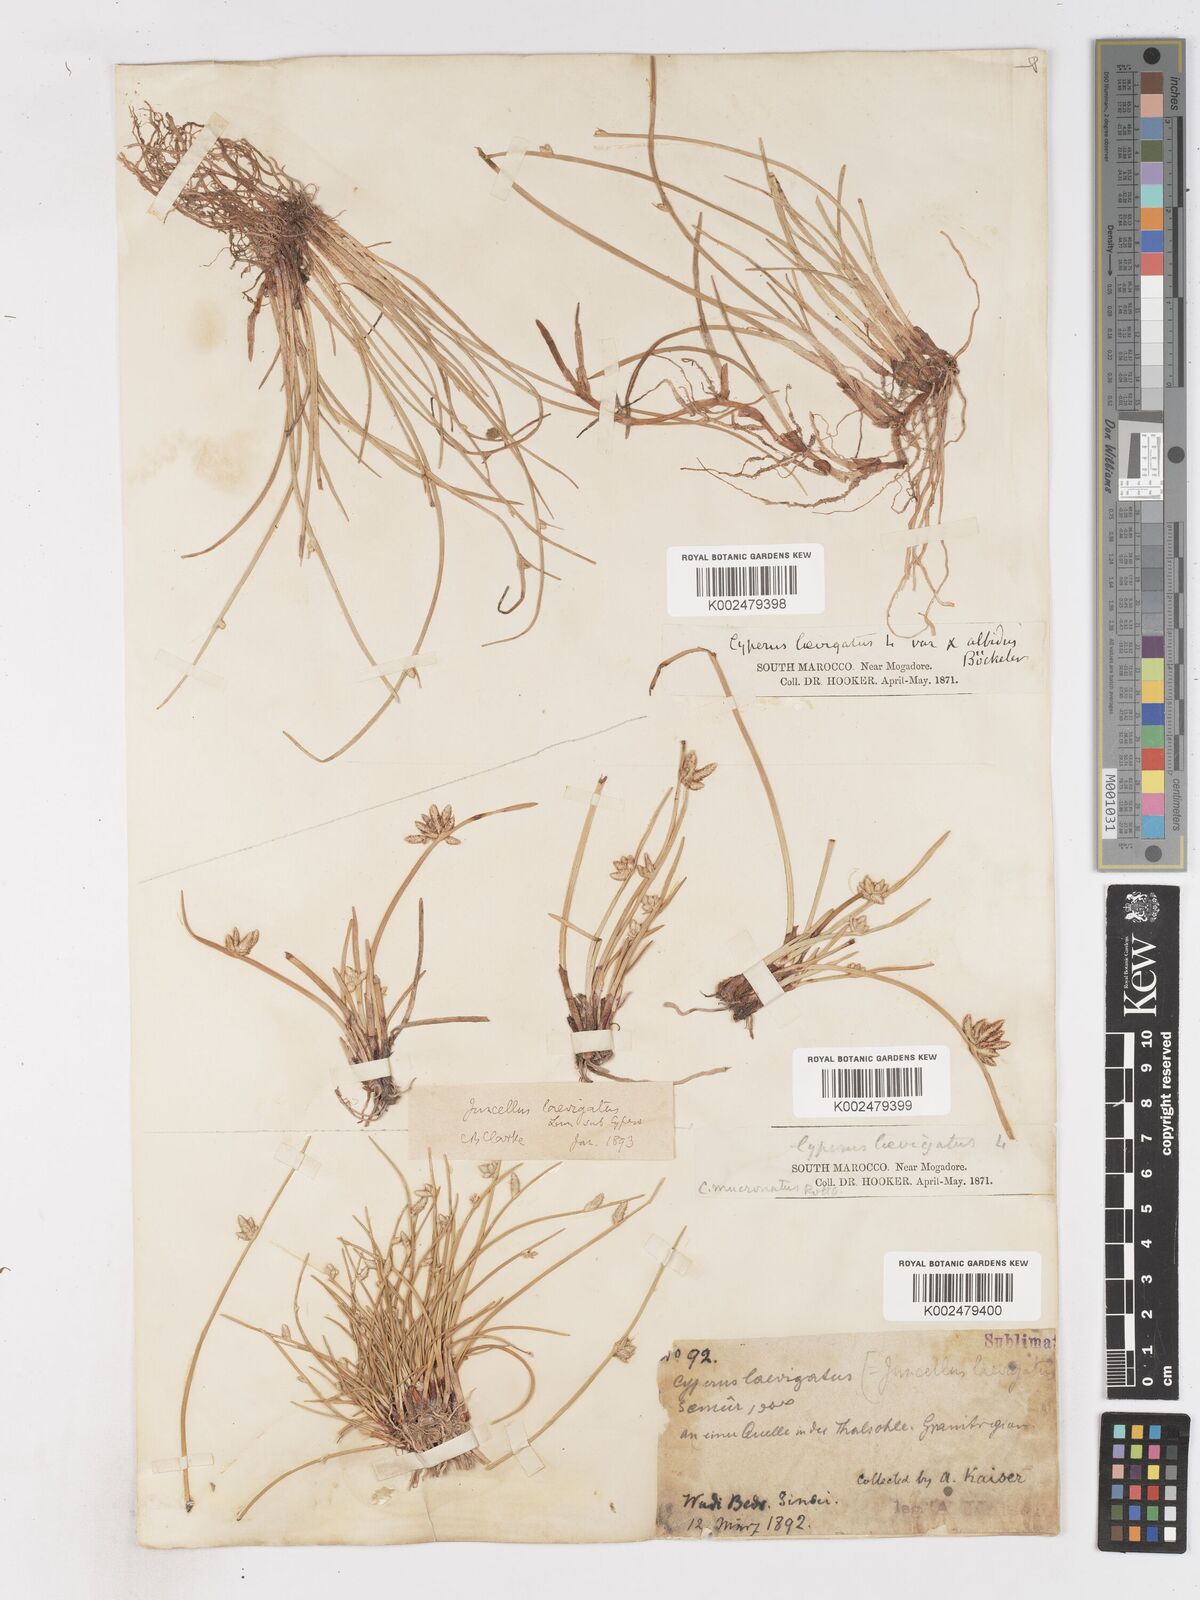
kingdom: Plantae
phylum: Tracheophyta
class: Liliopsida
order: Poales
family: Cyperaceae
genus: Cyperus
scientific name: Cyperus laevigatus
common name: Smooth flat sedge
